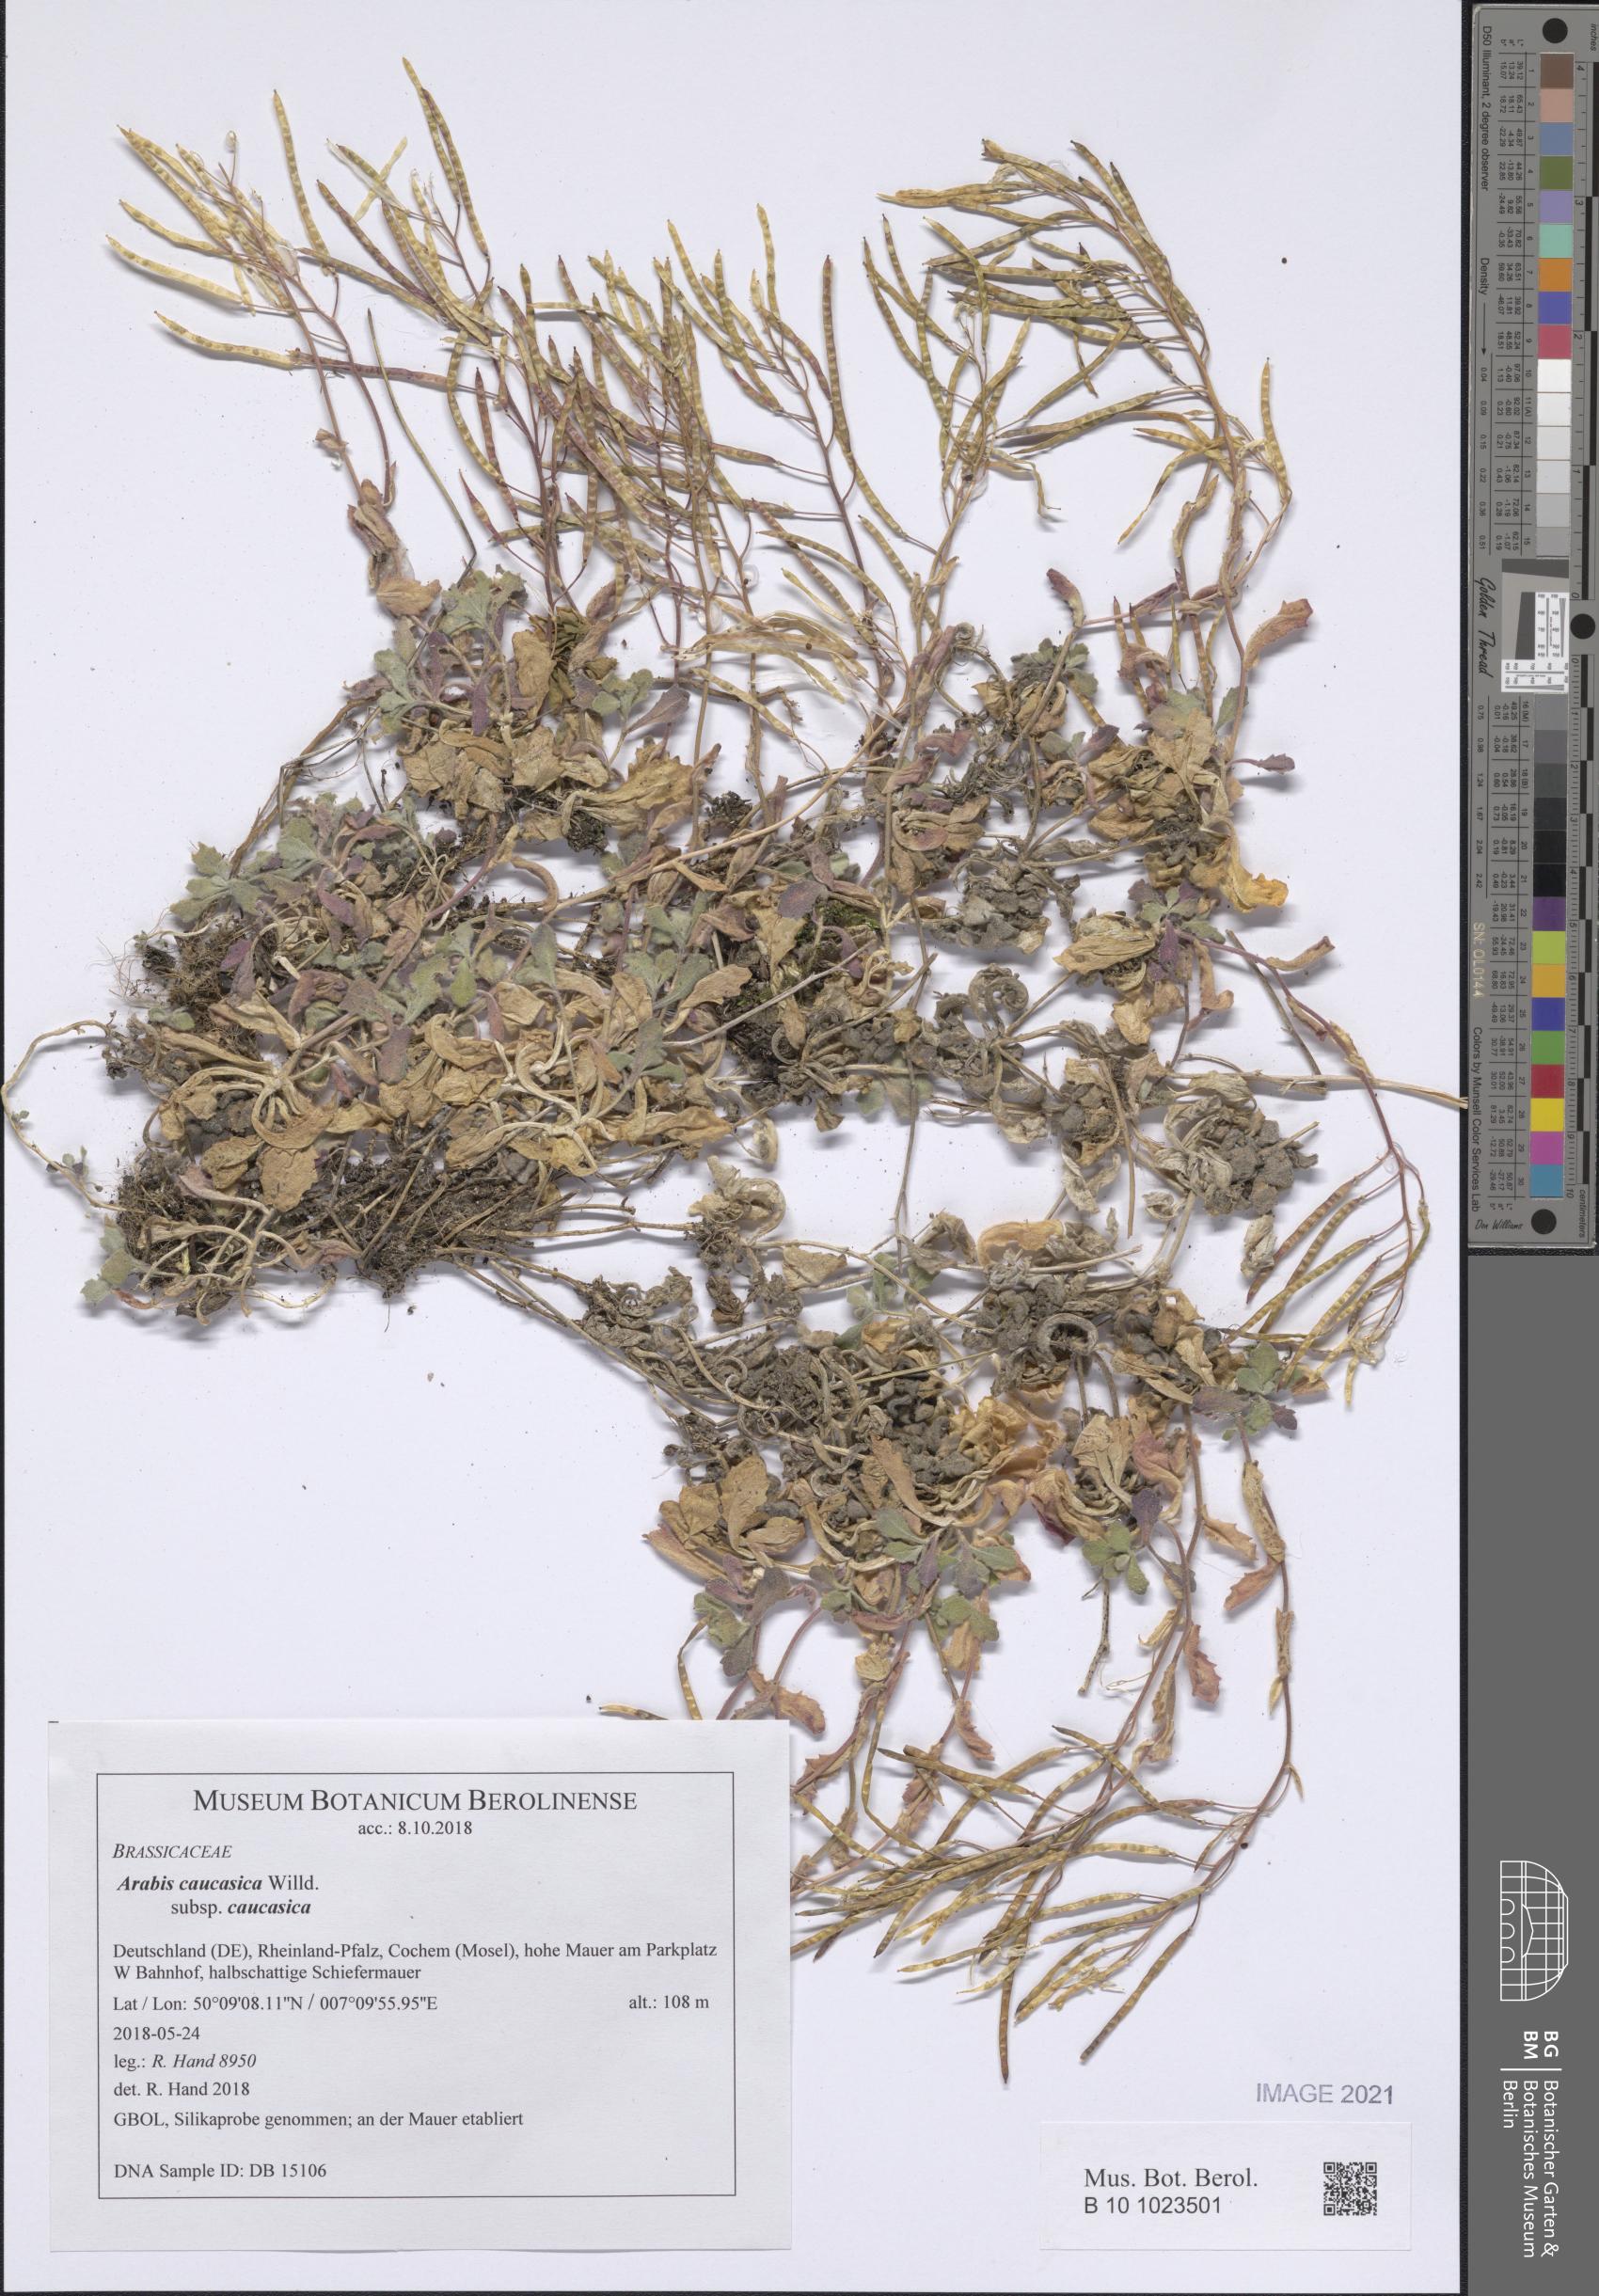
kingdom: Plantae
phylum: Tracheophyta
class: Magnoliopsida
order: Brassicales
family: Brassicaceae
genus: Arabis
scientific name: Arabis caucasica
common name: Gray rockcress
